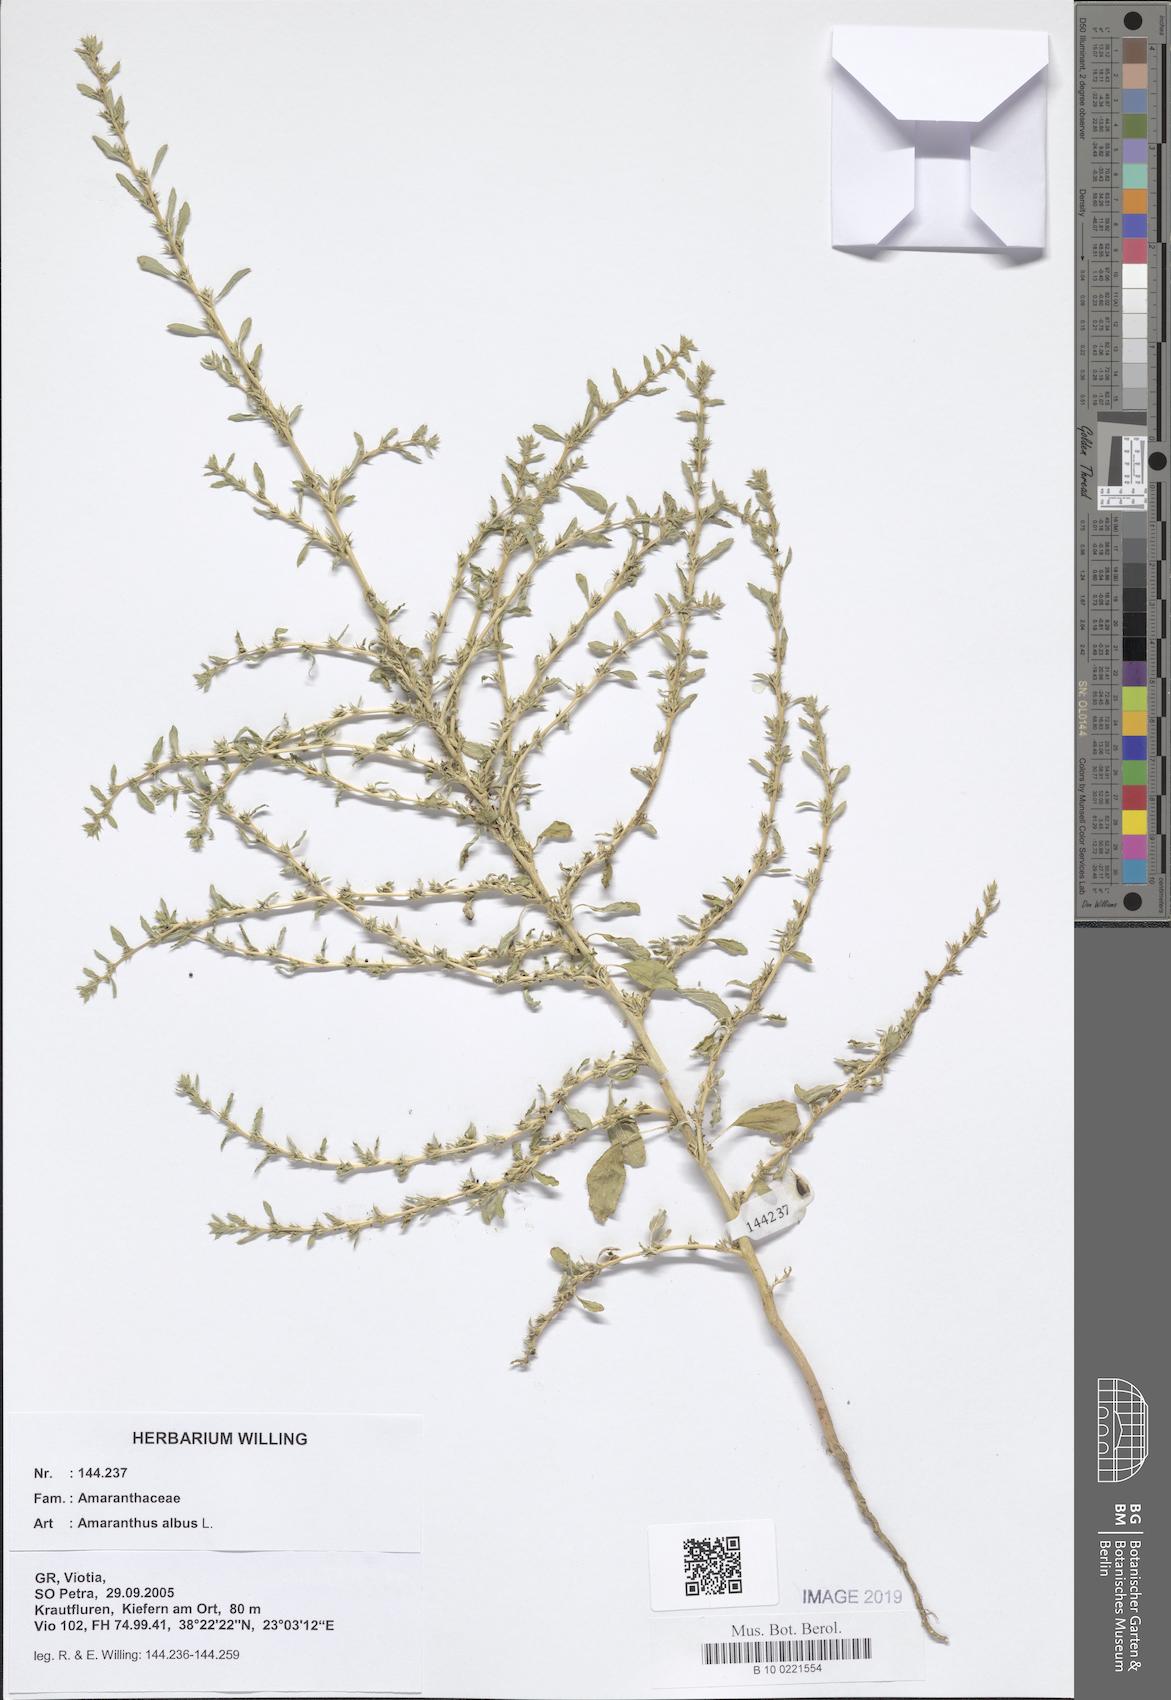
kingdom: Plantae
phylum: Tracheophyta
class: Magnoliopsida
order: Caryophyllales
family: Amaranthaceae
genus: Amaranthus
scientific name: Amaranthus albus
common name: White pigweed
